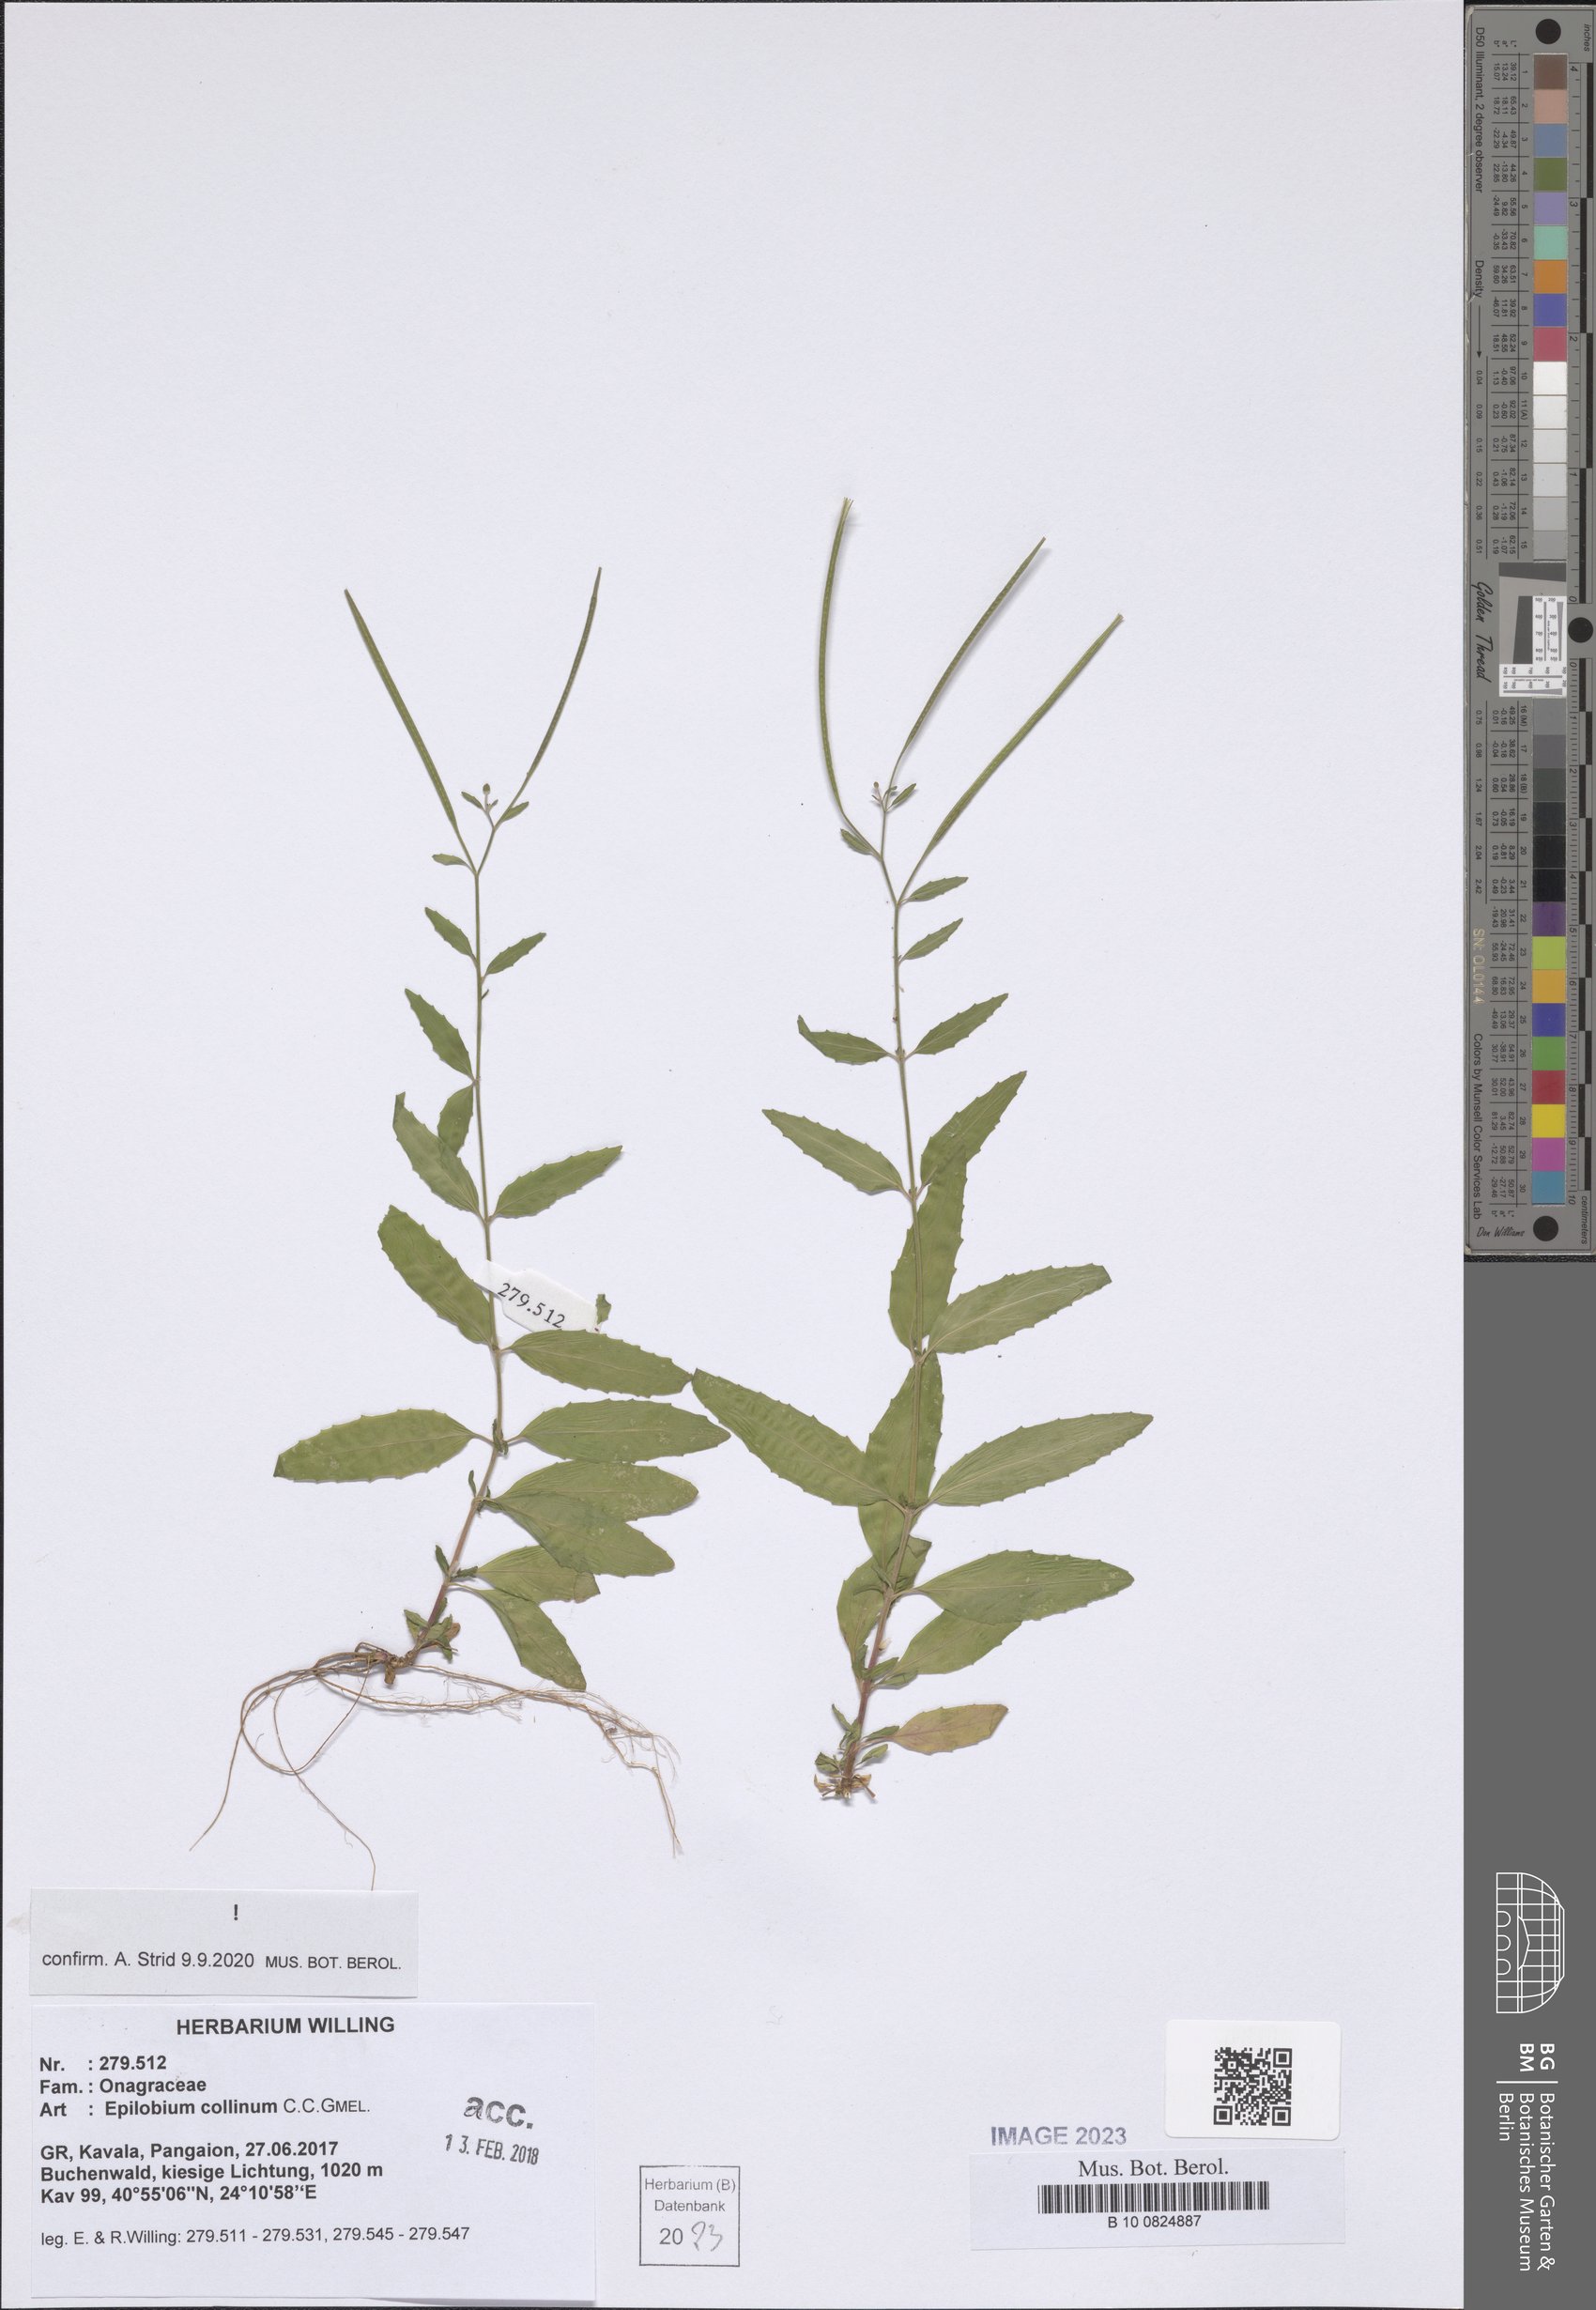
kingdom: Plantae
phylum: Tracheophyta
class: Magnoliopsida
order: Myrtales
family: Onagraceae
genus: Epilobium
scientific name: Epilobium collinum
